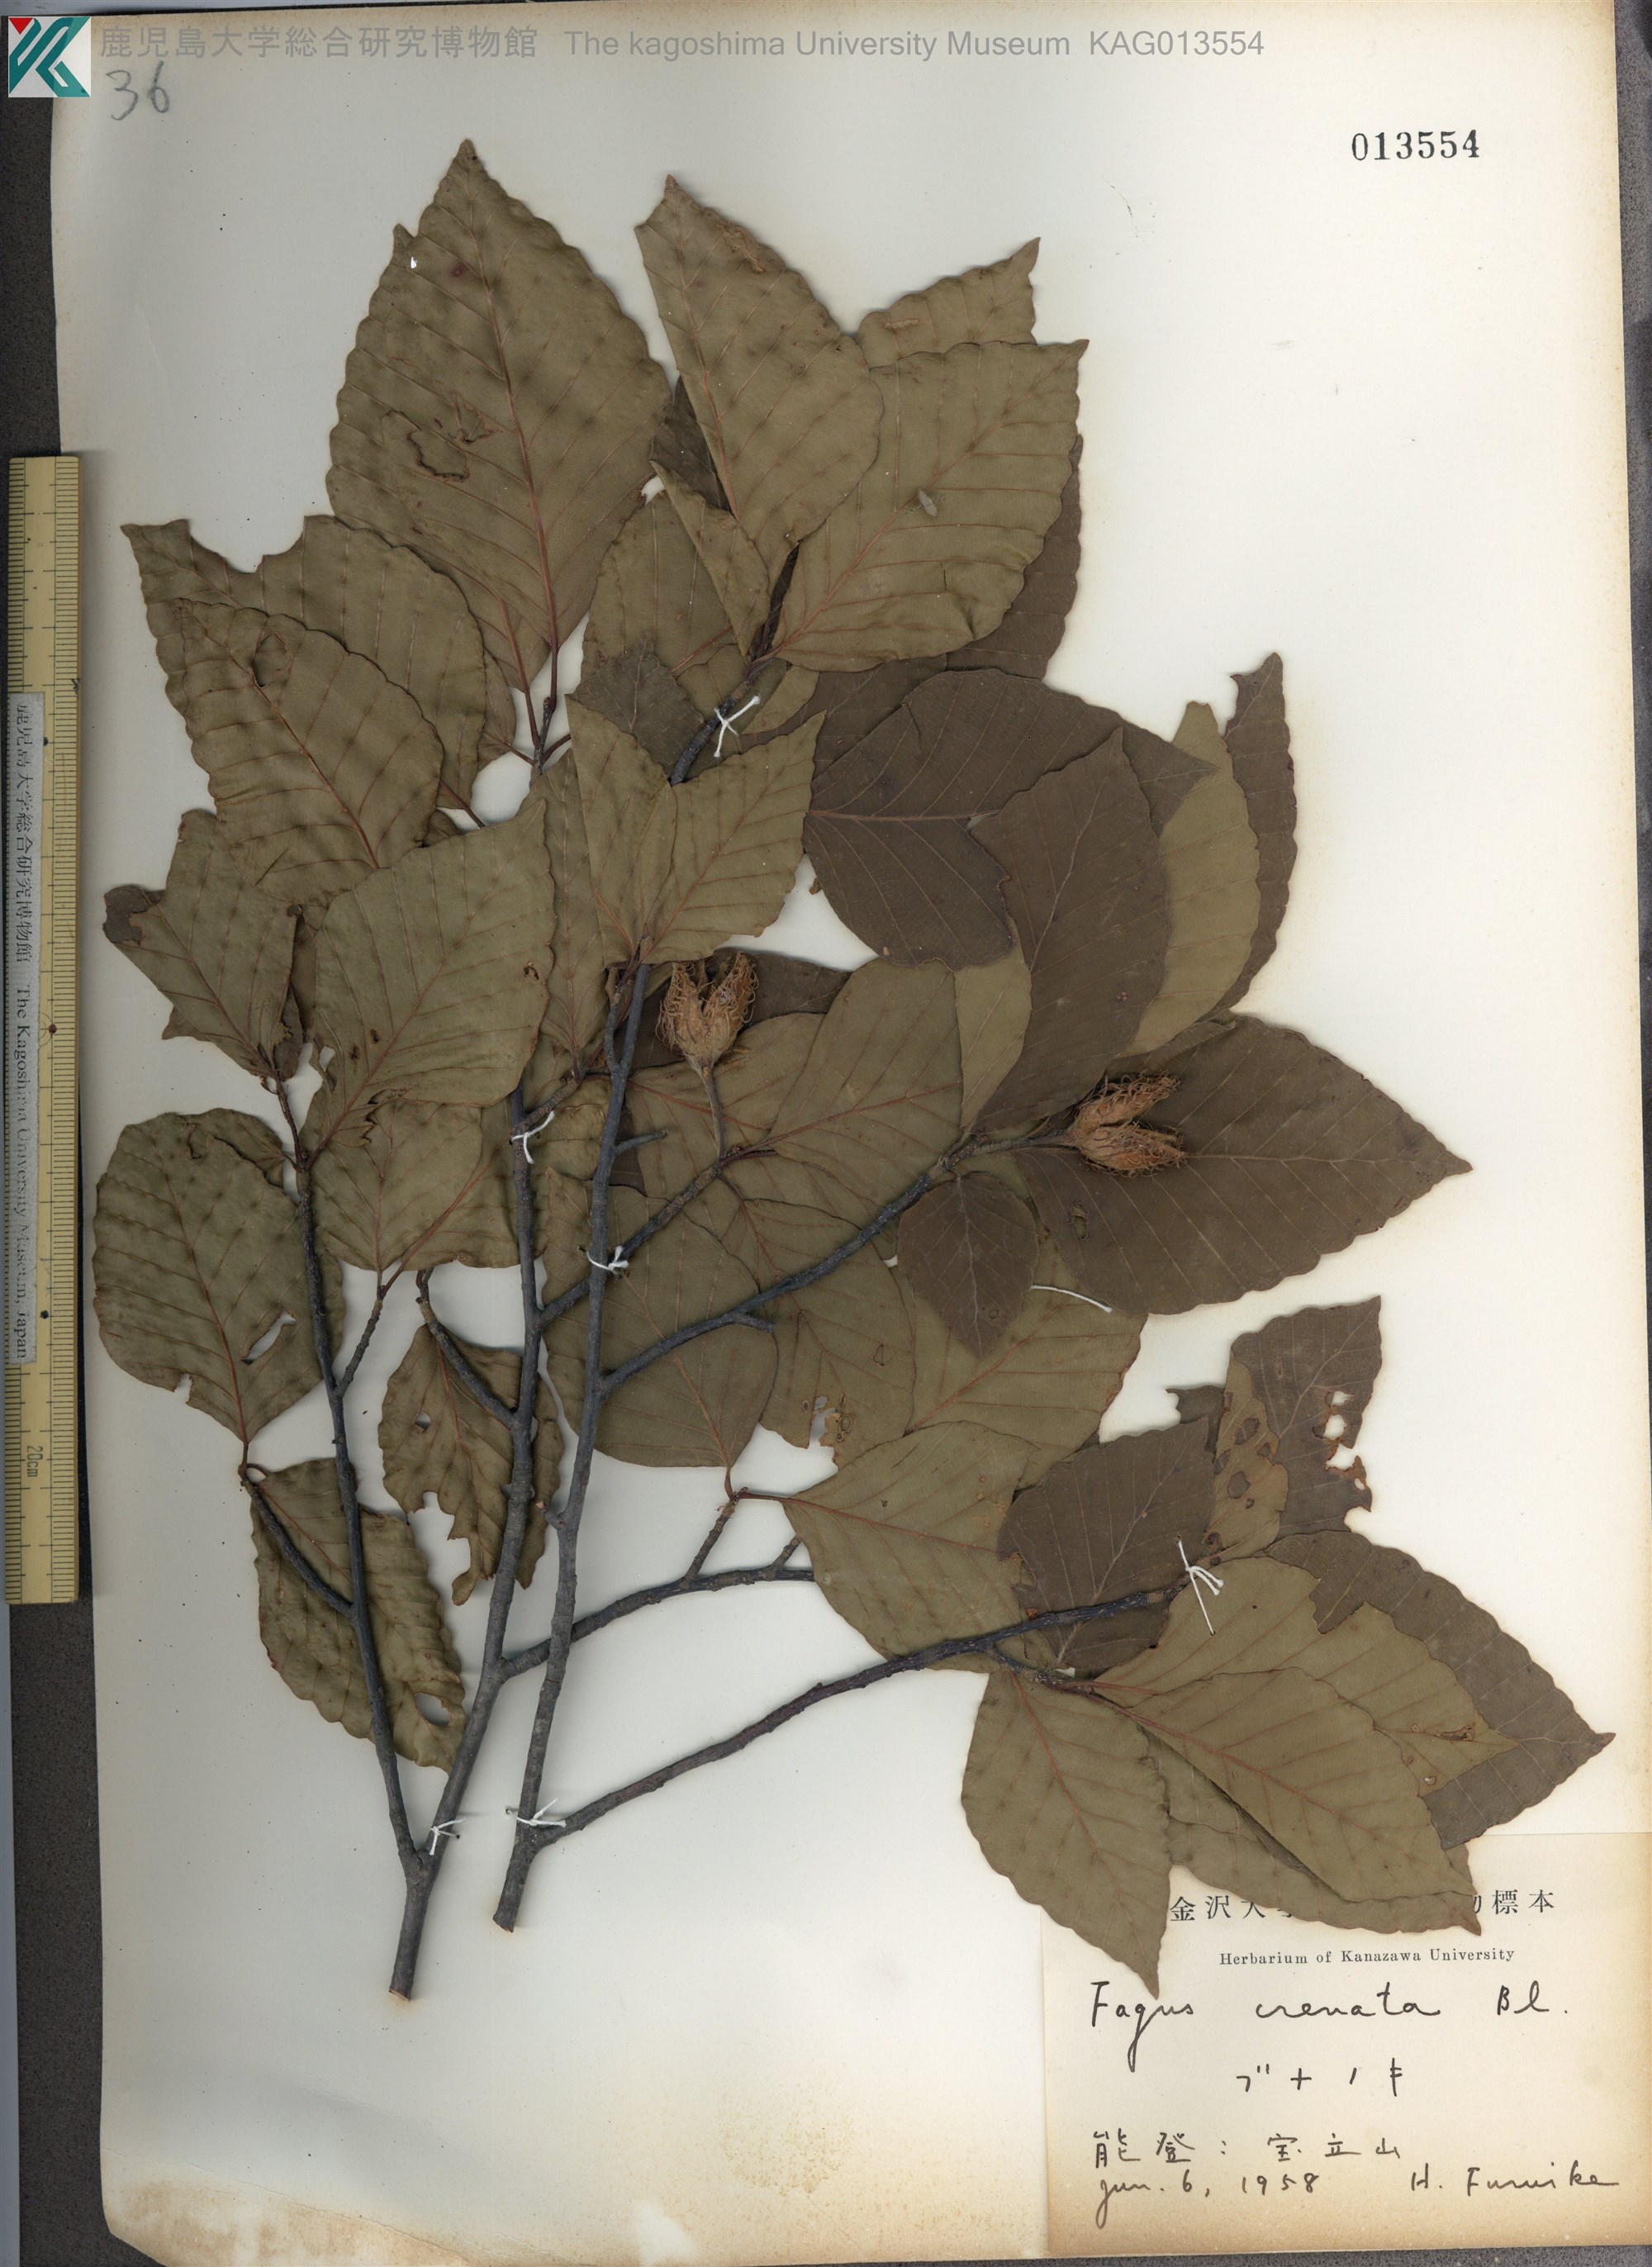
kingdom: Plantae
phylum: Tracheophyta
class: Magnoliopsida
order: Fagales
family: Fagaceae
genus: Fagus
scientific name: Fagus crenata
